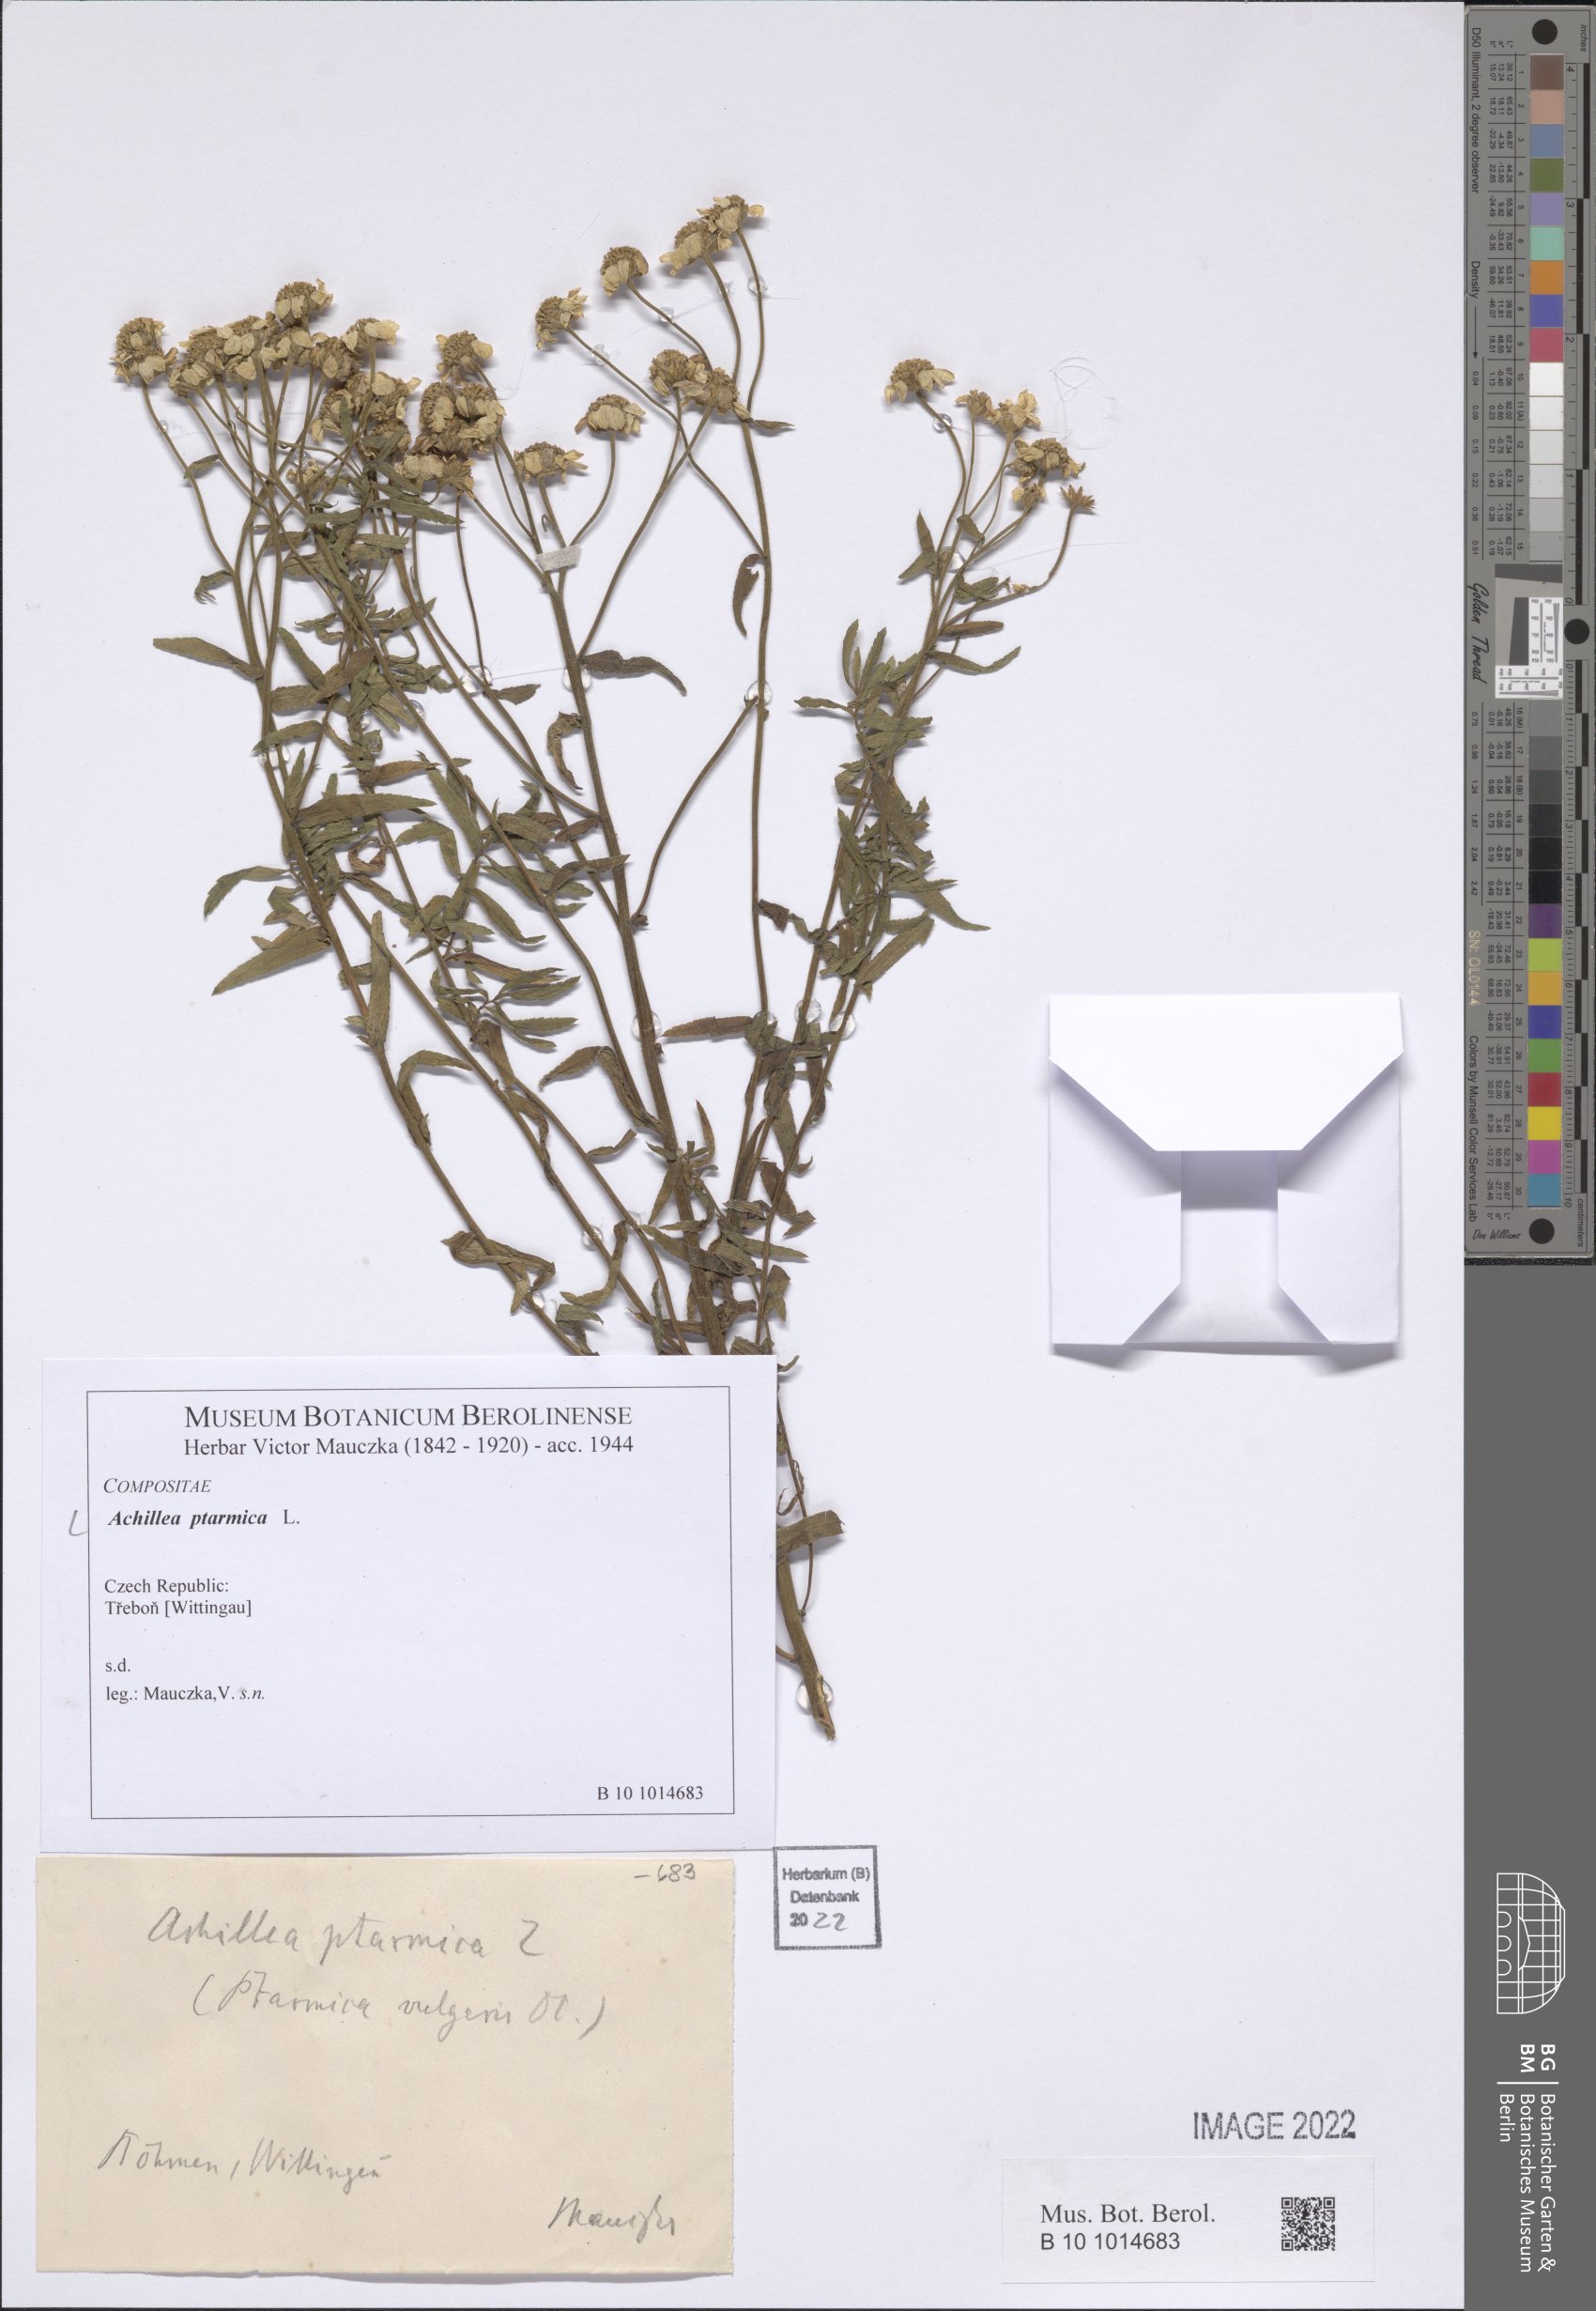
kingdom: Plantae
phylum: Tracheophyta
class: Magnoliopsida
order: Asterales
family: Asteraceae
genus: Achillea
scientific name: Achillea ptarmica
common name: Sneezeweed
